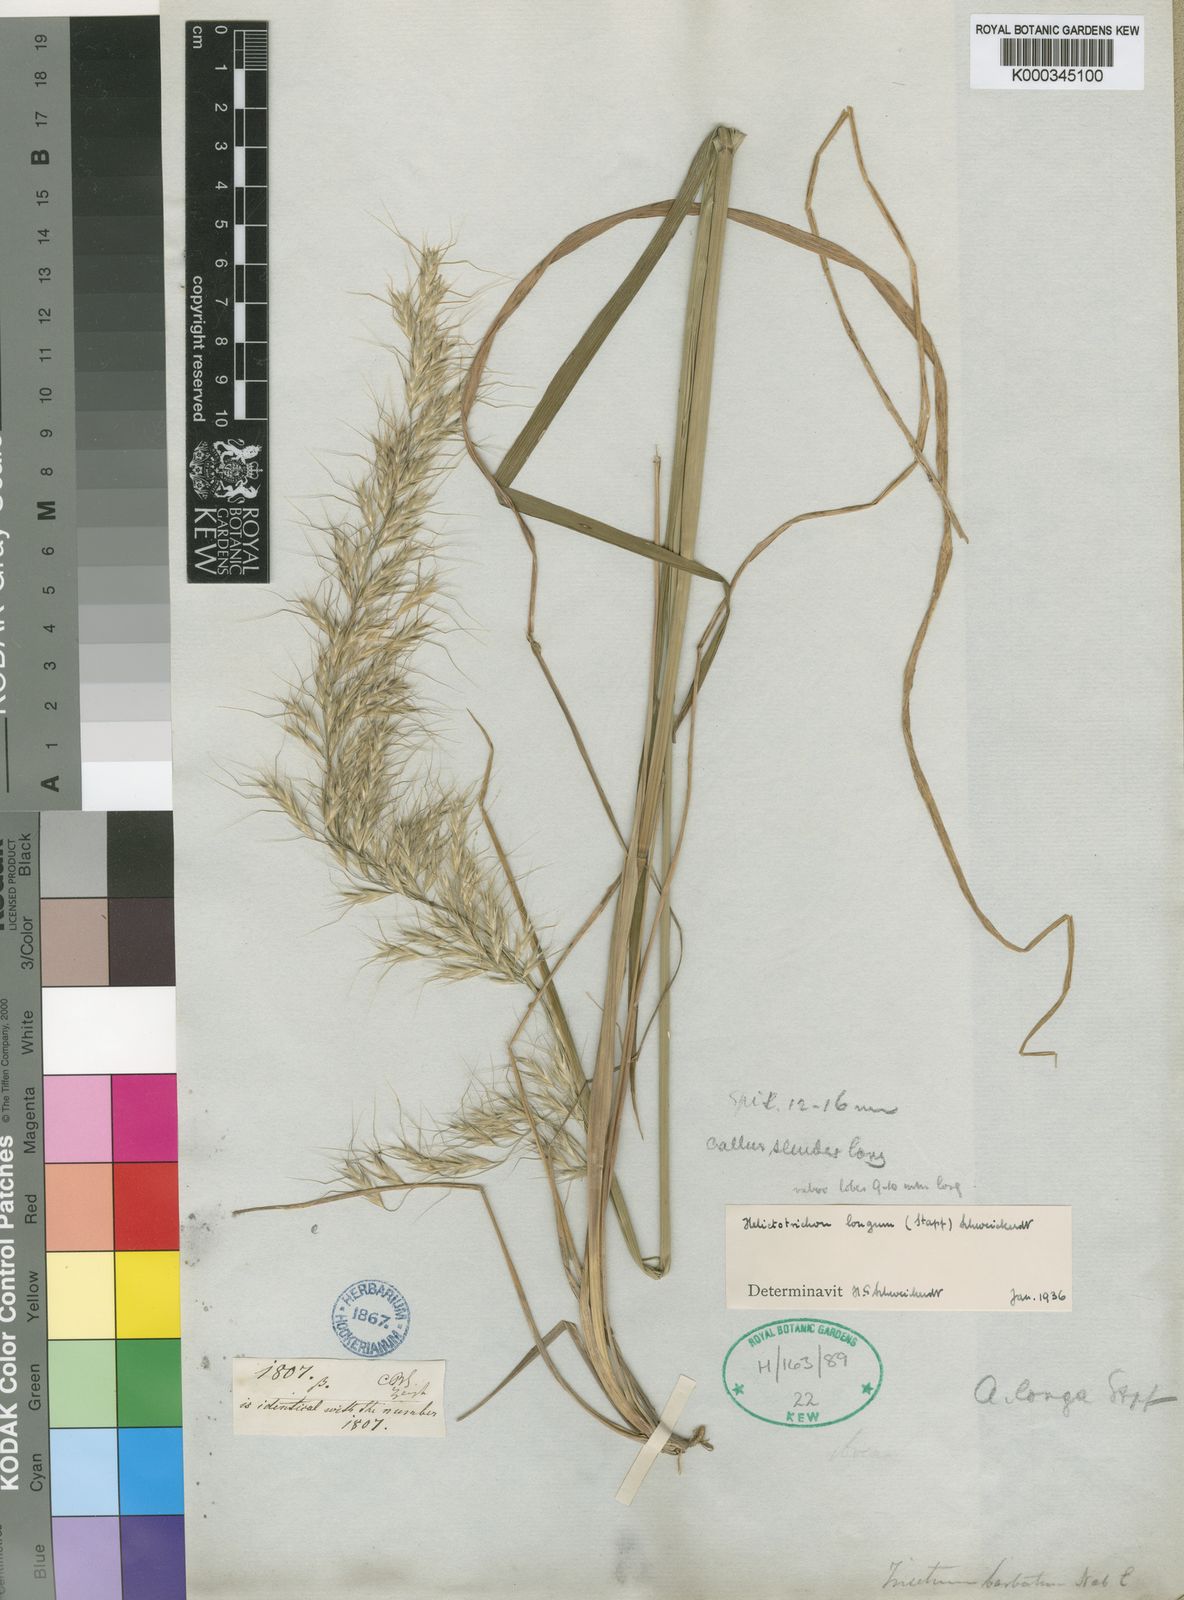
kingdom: Plantae
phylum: Tracheophyta
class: Liliopsida
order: Poales
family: Poaceae
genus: Trisetopsis
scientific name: Trisetopsis longa
